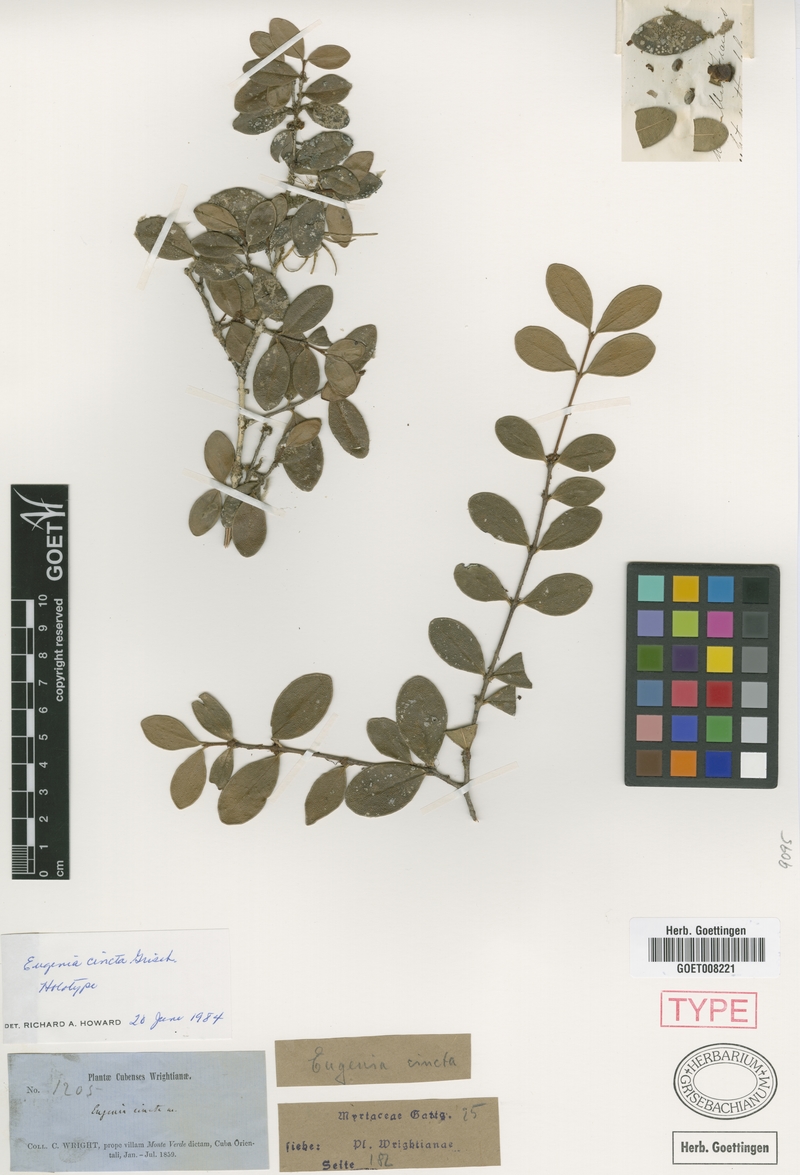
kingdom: Plantae
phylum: Tracheophyta
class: Magnoliopsida
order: Myrtales
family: Myrtaceae
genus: Eugenia
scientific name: Eugenia cincta
